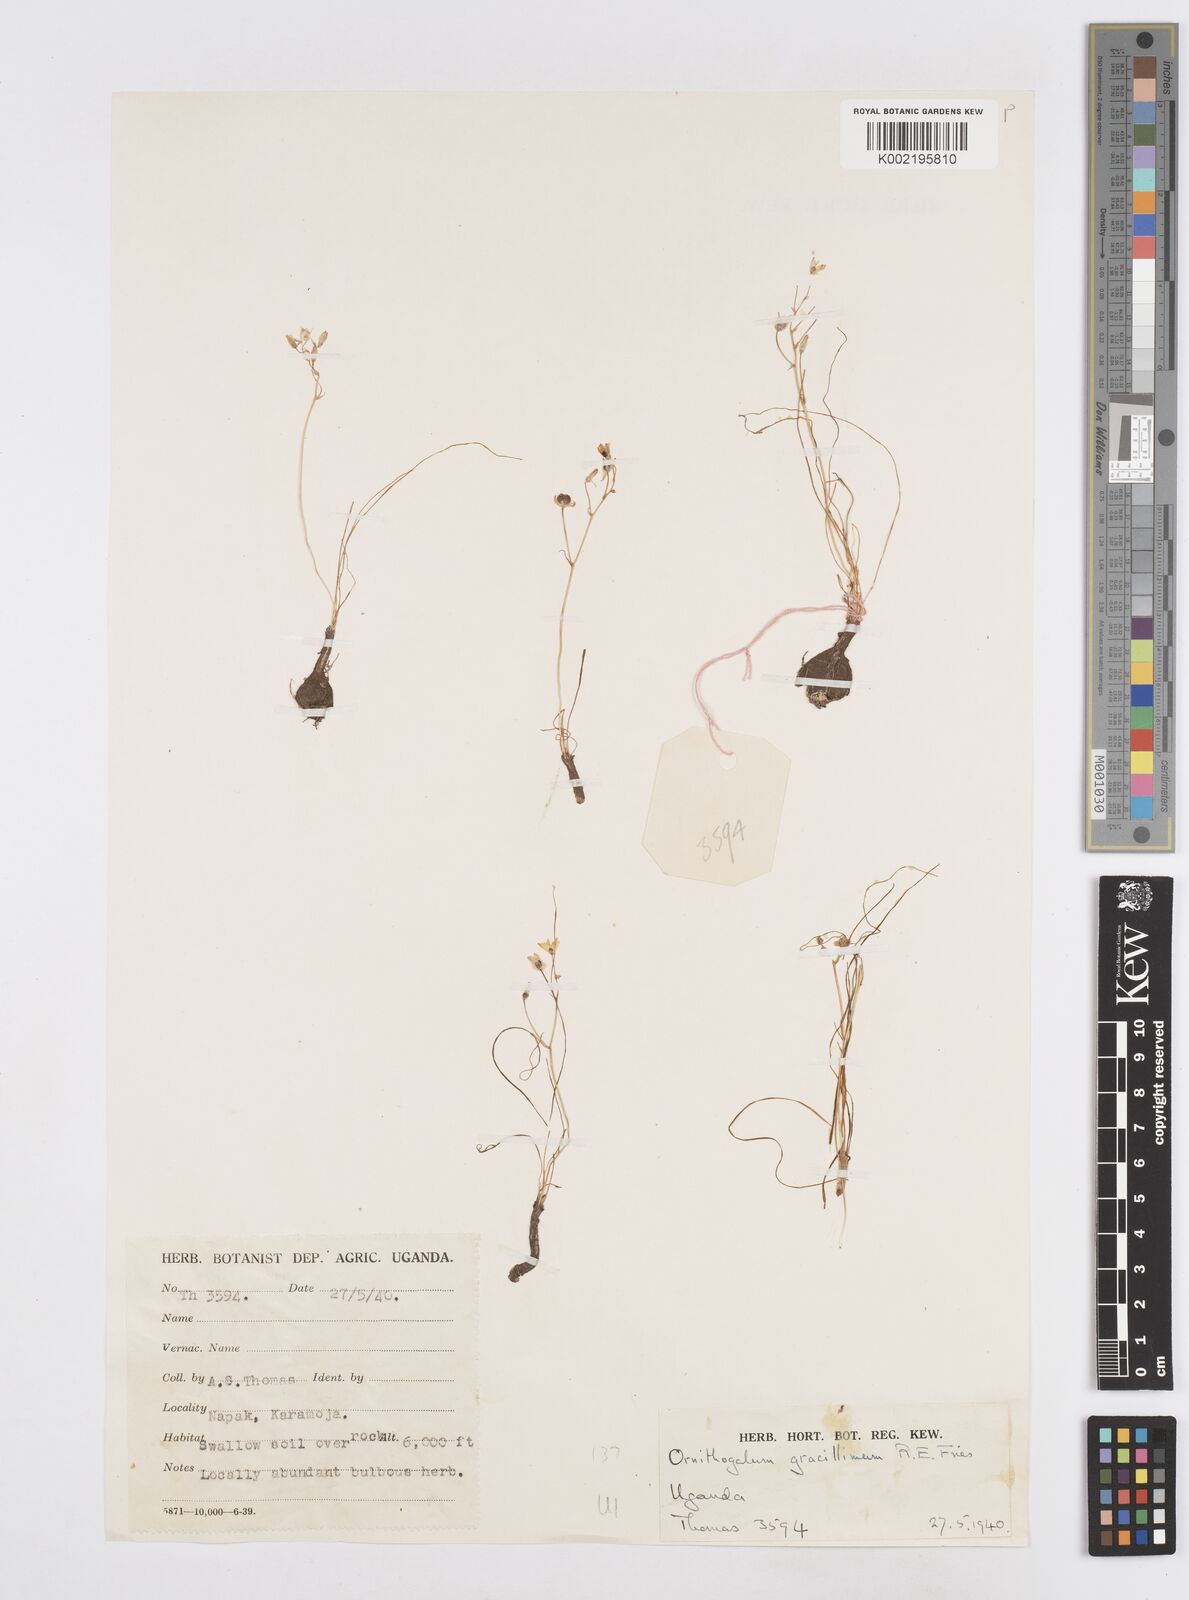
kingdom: Plantae
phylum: Tracheophyta
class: Liliopsida
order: Asparagales
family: Asparagaceae
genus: Ornithogalum
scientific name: Ornithogalum gracillimum
